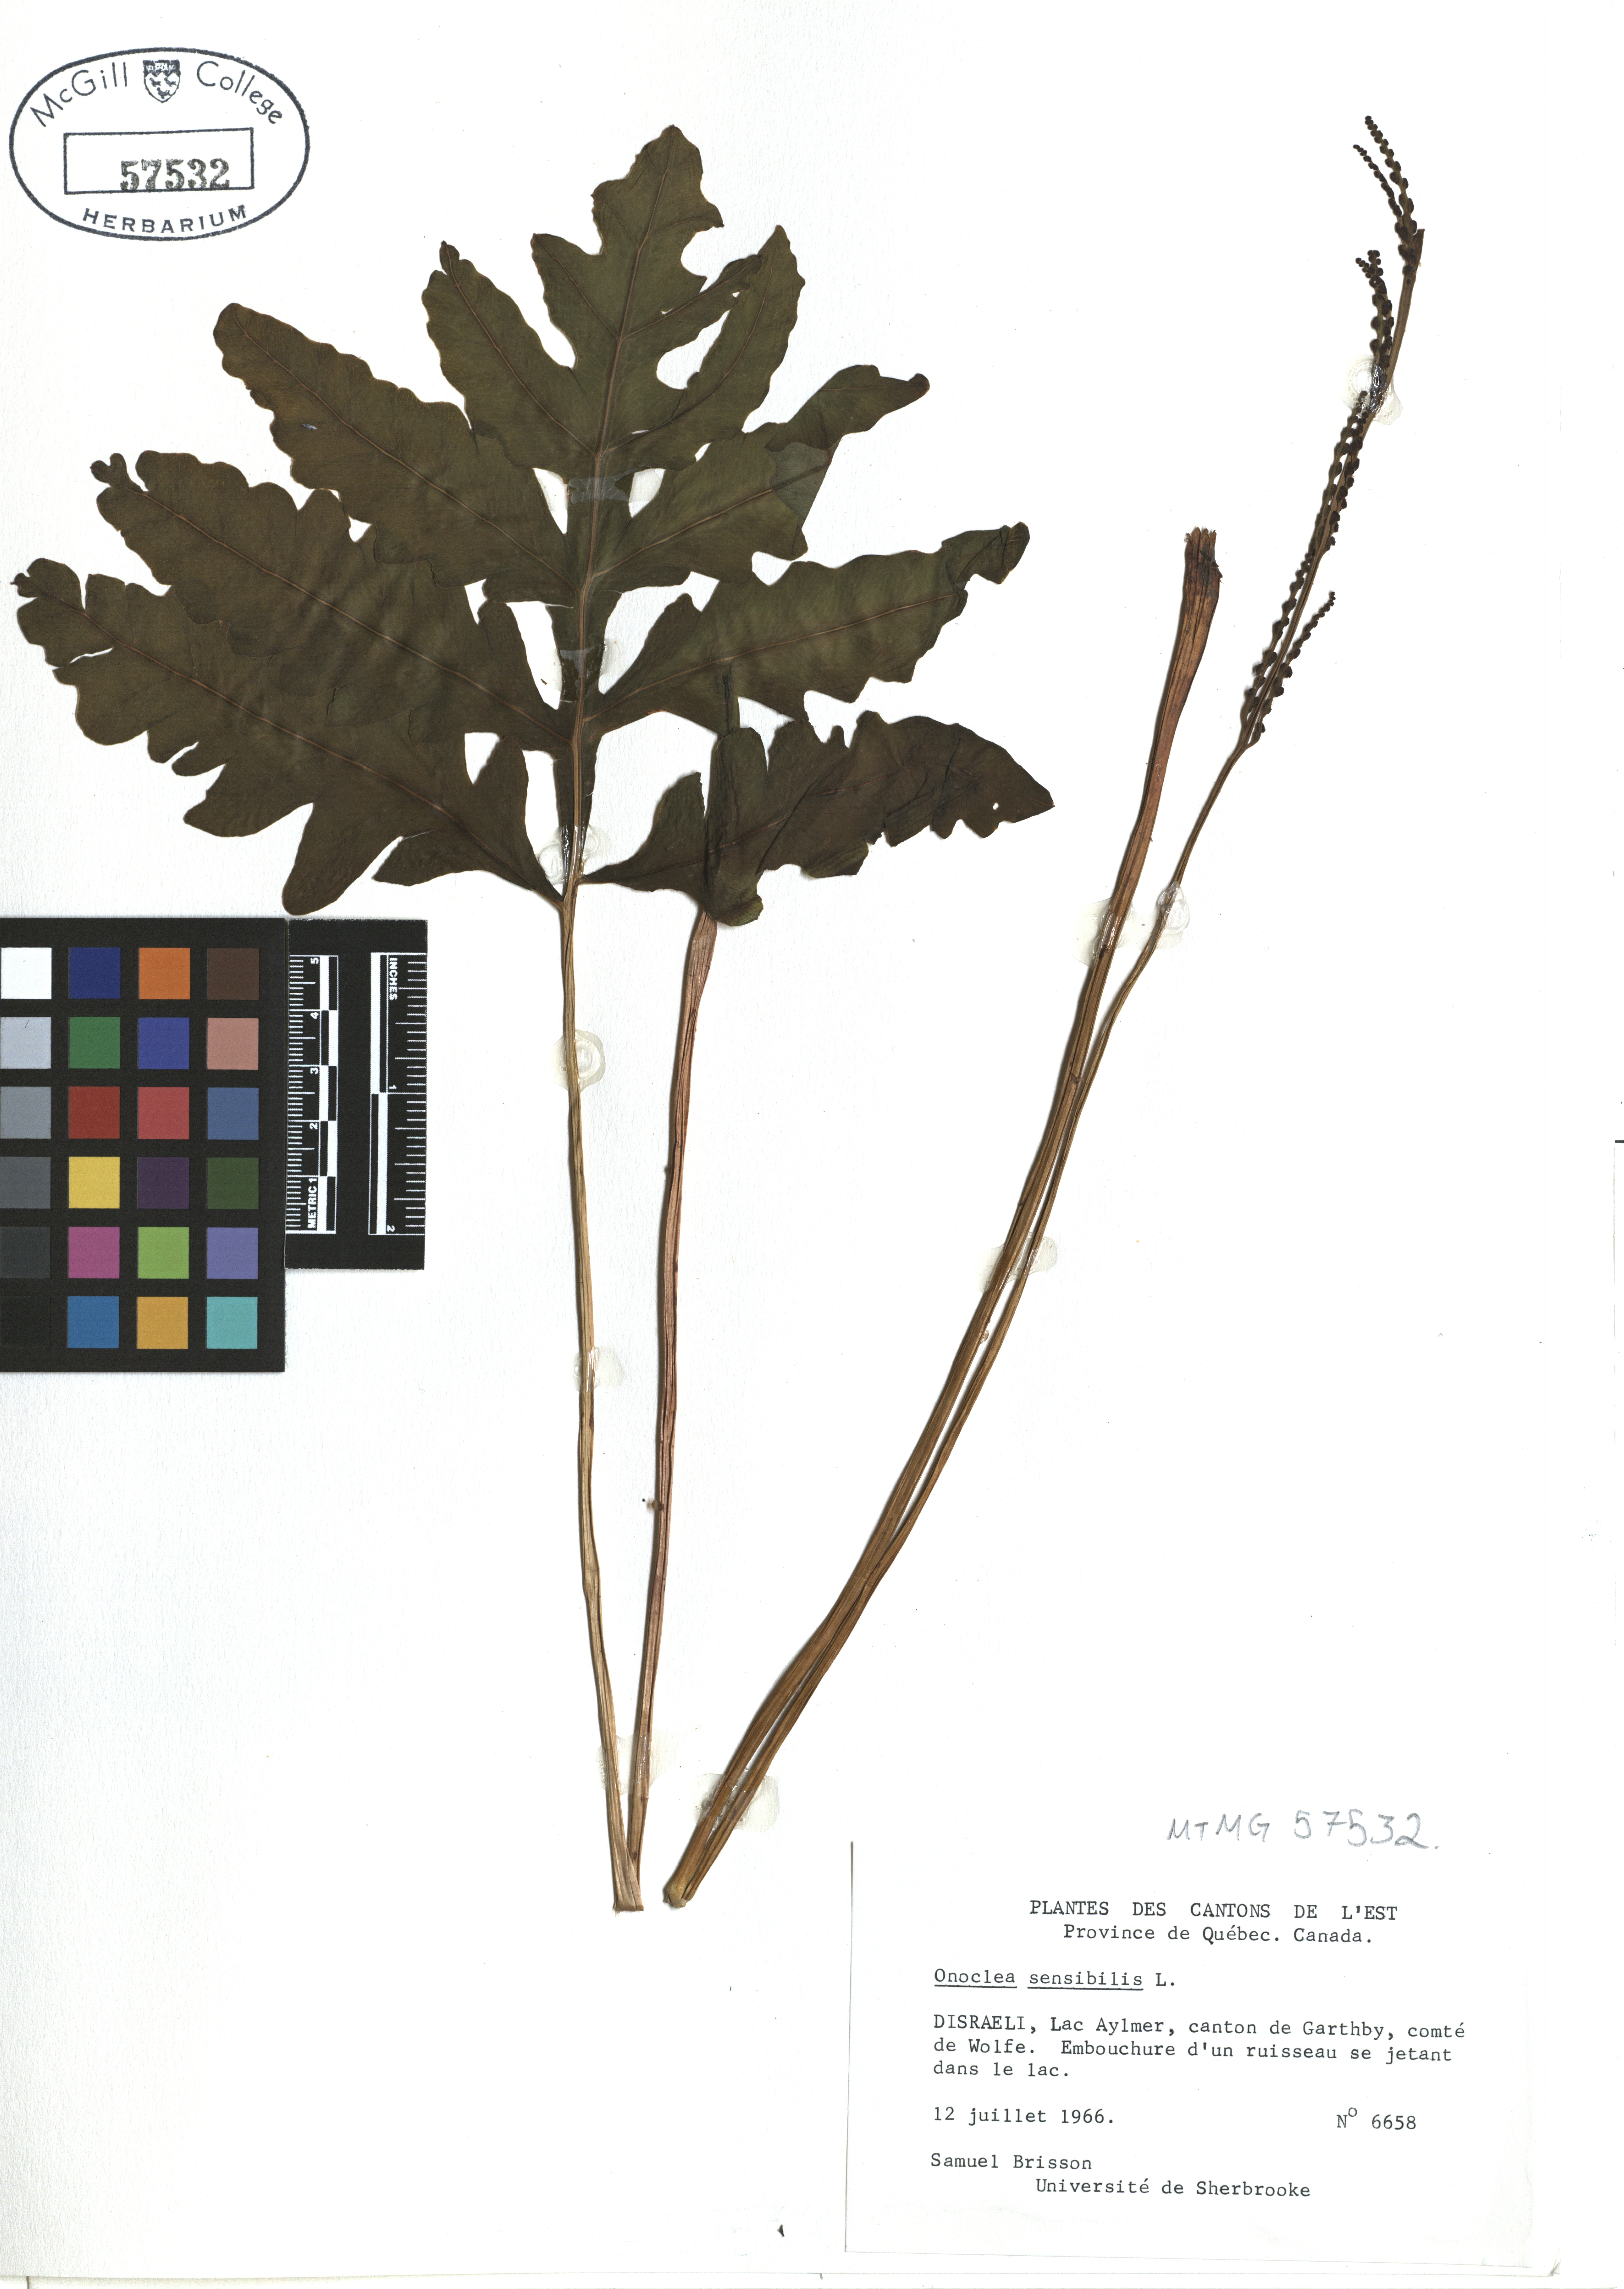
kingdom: Plantae
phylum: Tracheophyta
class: Polypodiopsida
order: Polypodiales
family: Onocleaceae
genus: Onoclea
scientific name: Onoclea sensibilis
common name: Sensitive fern
